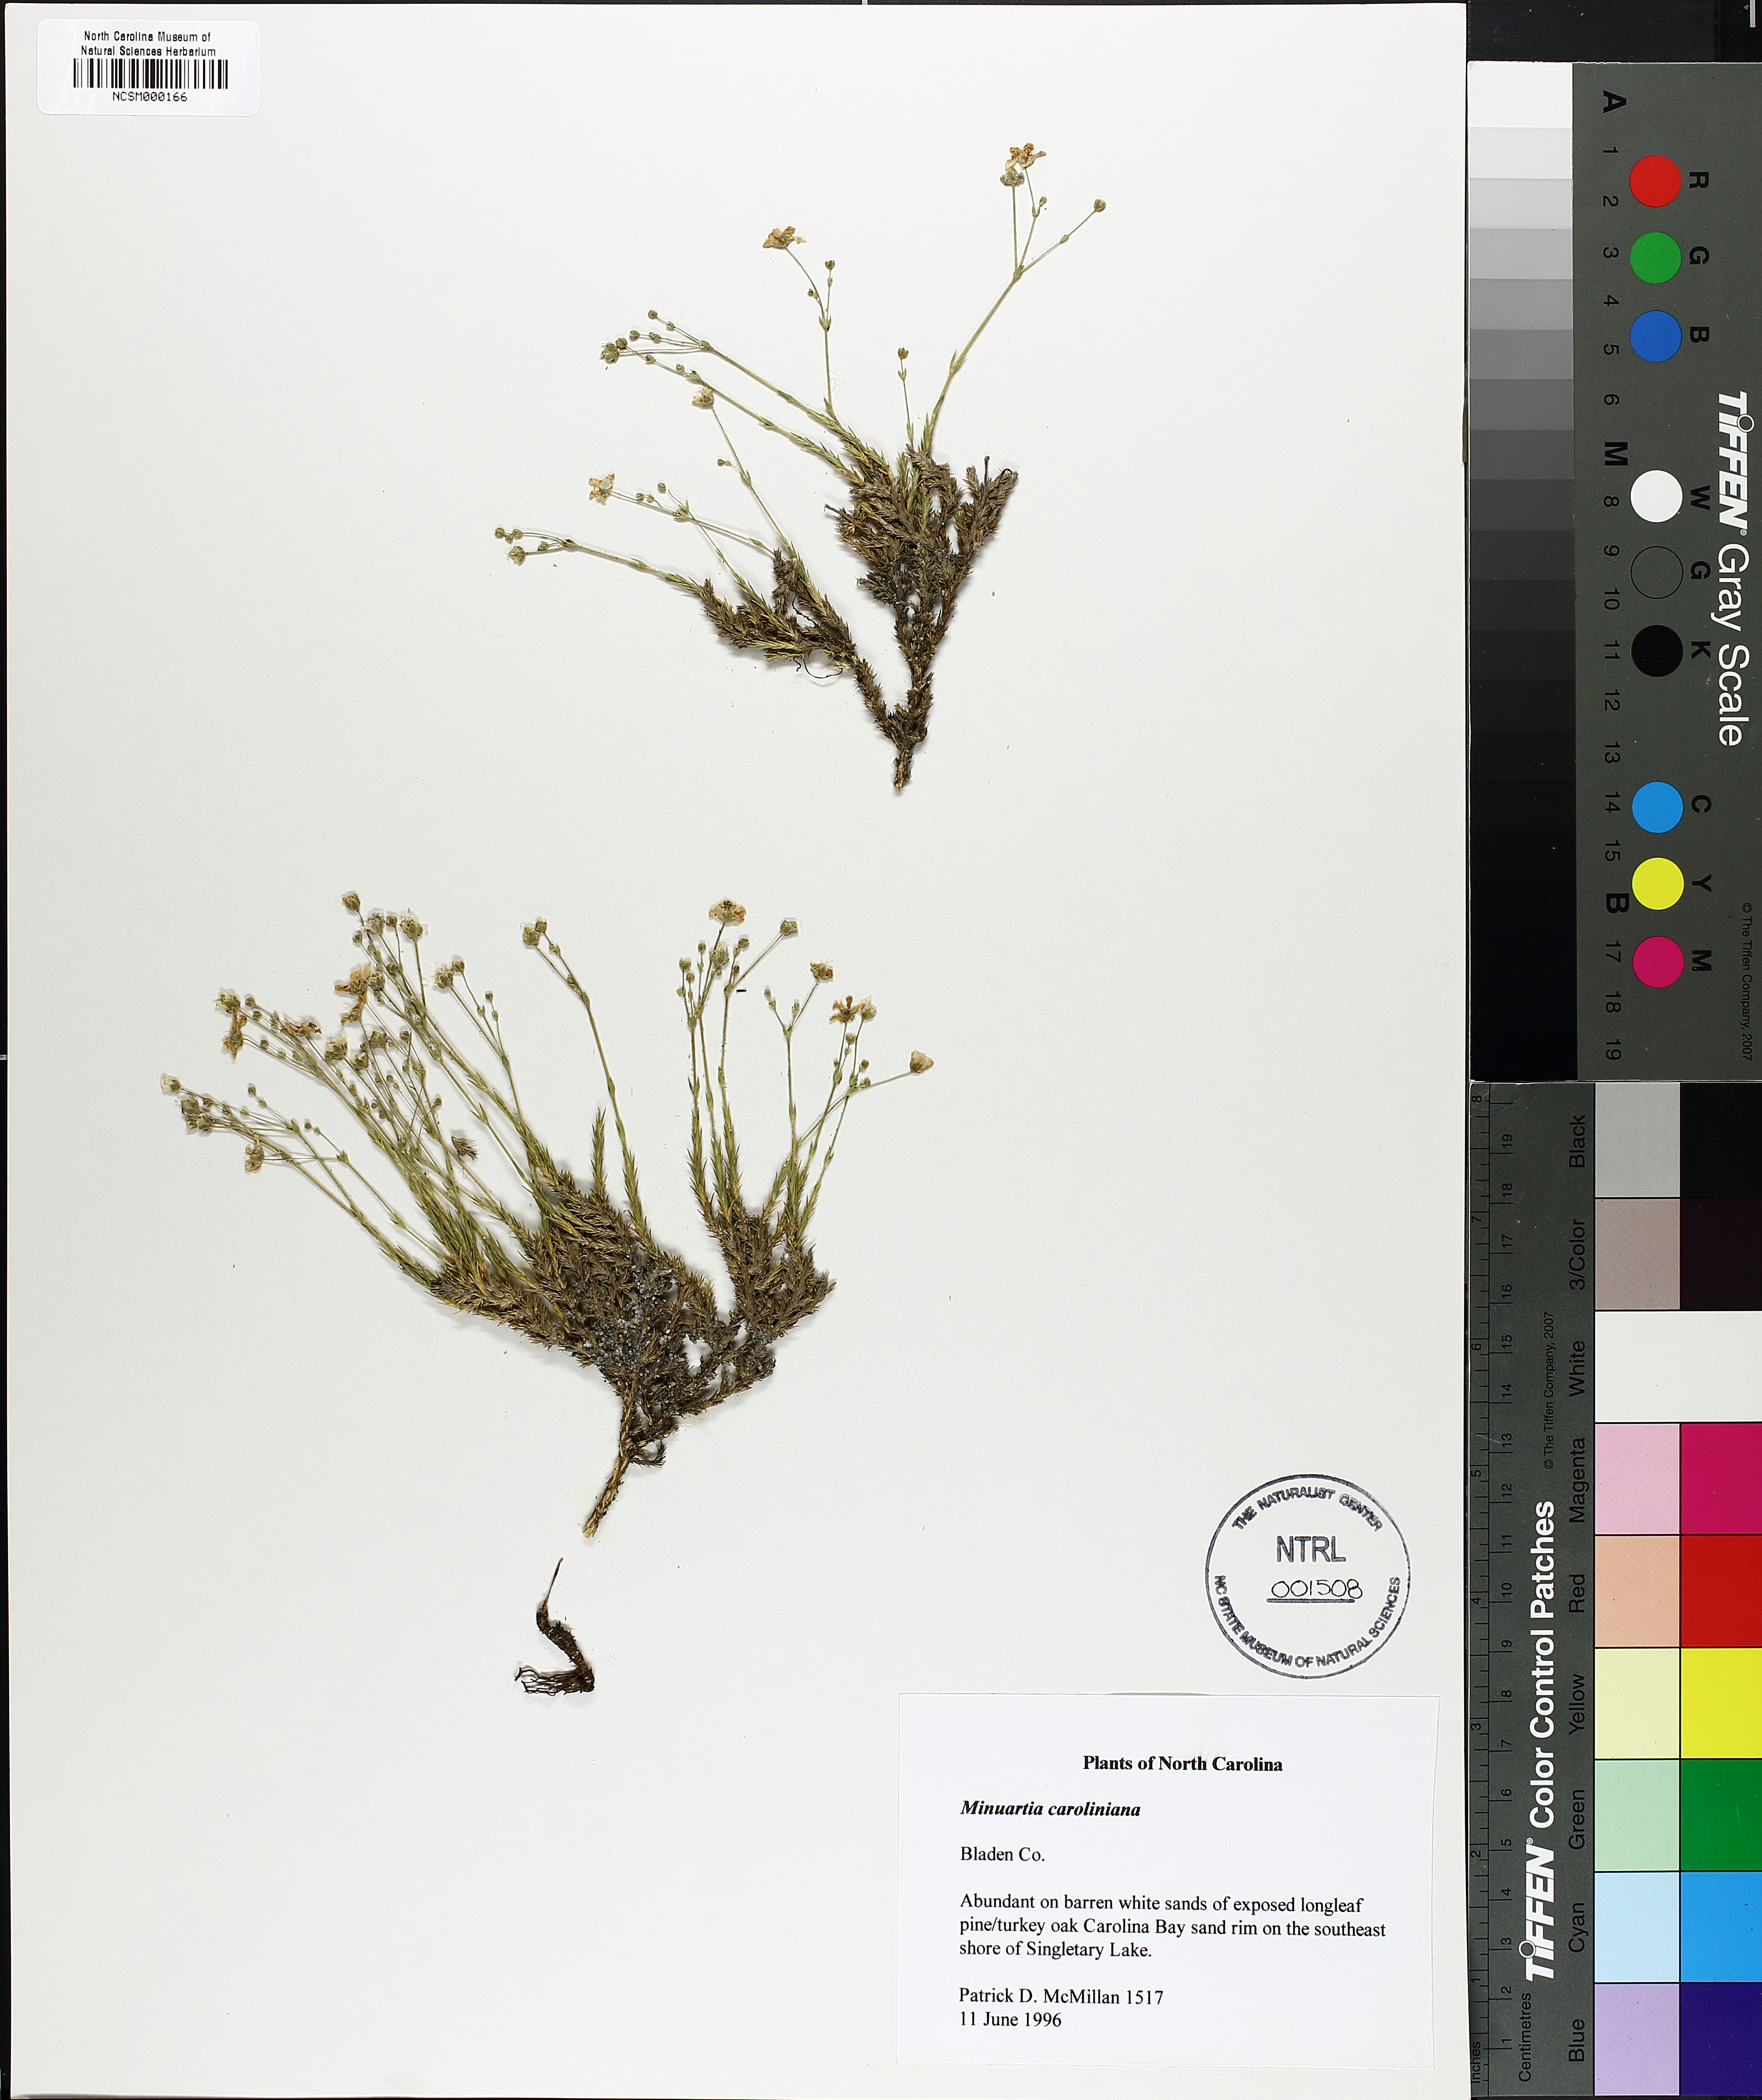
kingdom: Plantae
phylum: Tracheophyta
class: Magnoliopsida
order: Caryophyllales
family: Caryophyllaceae
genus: Geocarpon
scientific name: Geocarpon carolinianum
